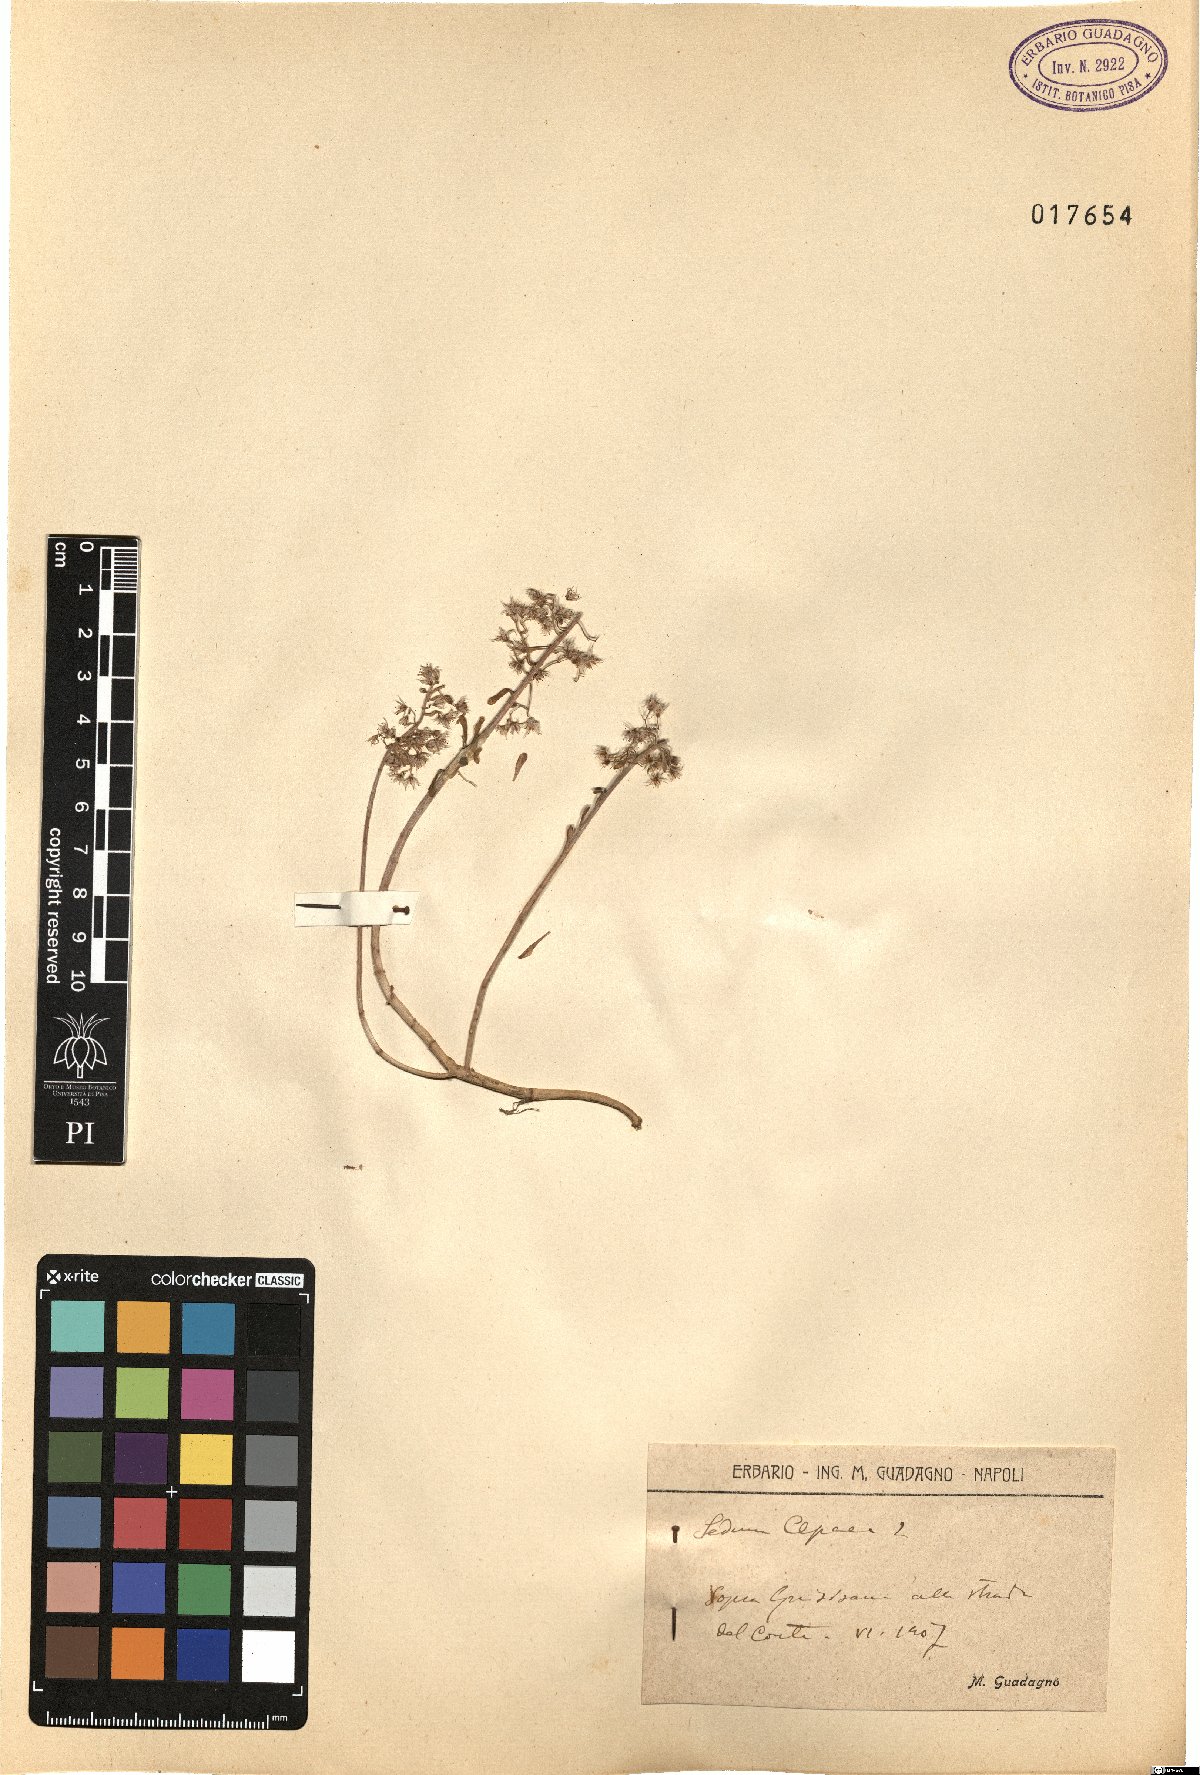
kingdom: Plantae
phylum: Tracheophyta
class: Magnoliopsida
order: Saxifragales
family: Crassulaceae
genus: Sedum
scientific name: Sedum cepaea
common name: Pink stonecrop
